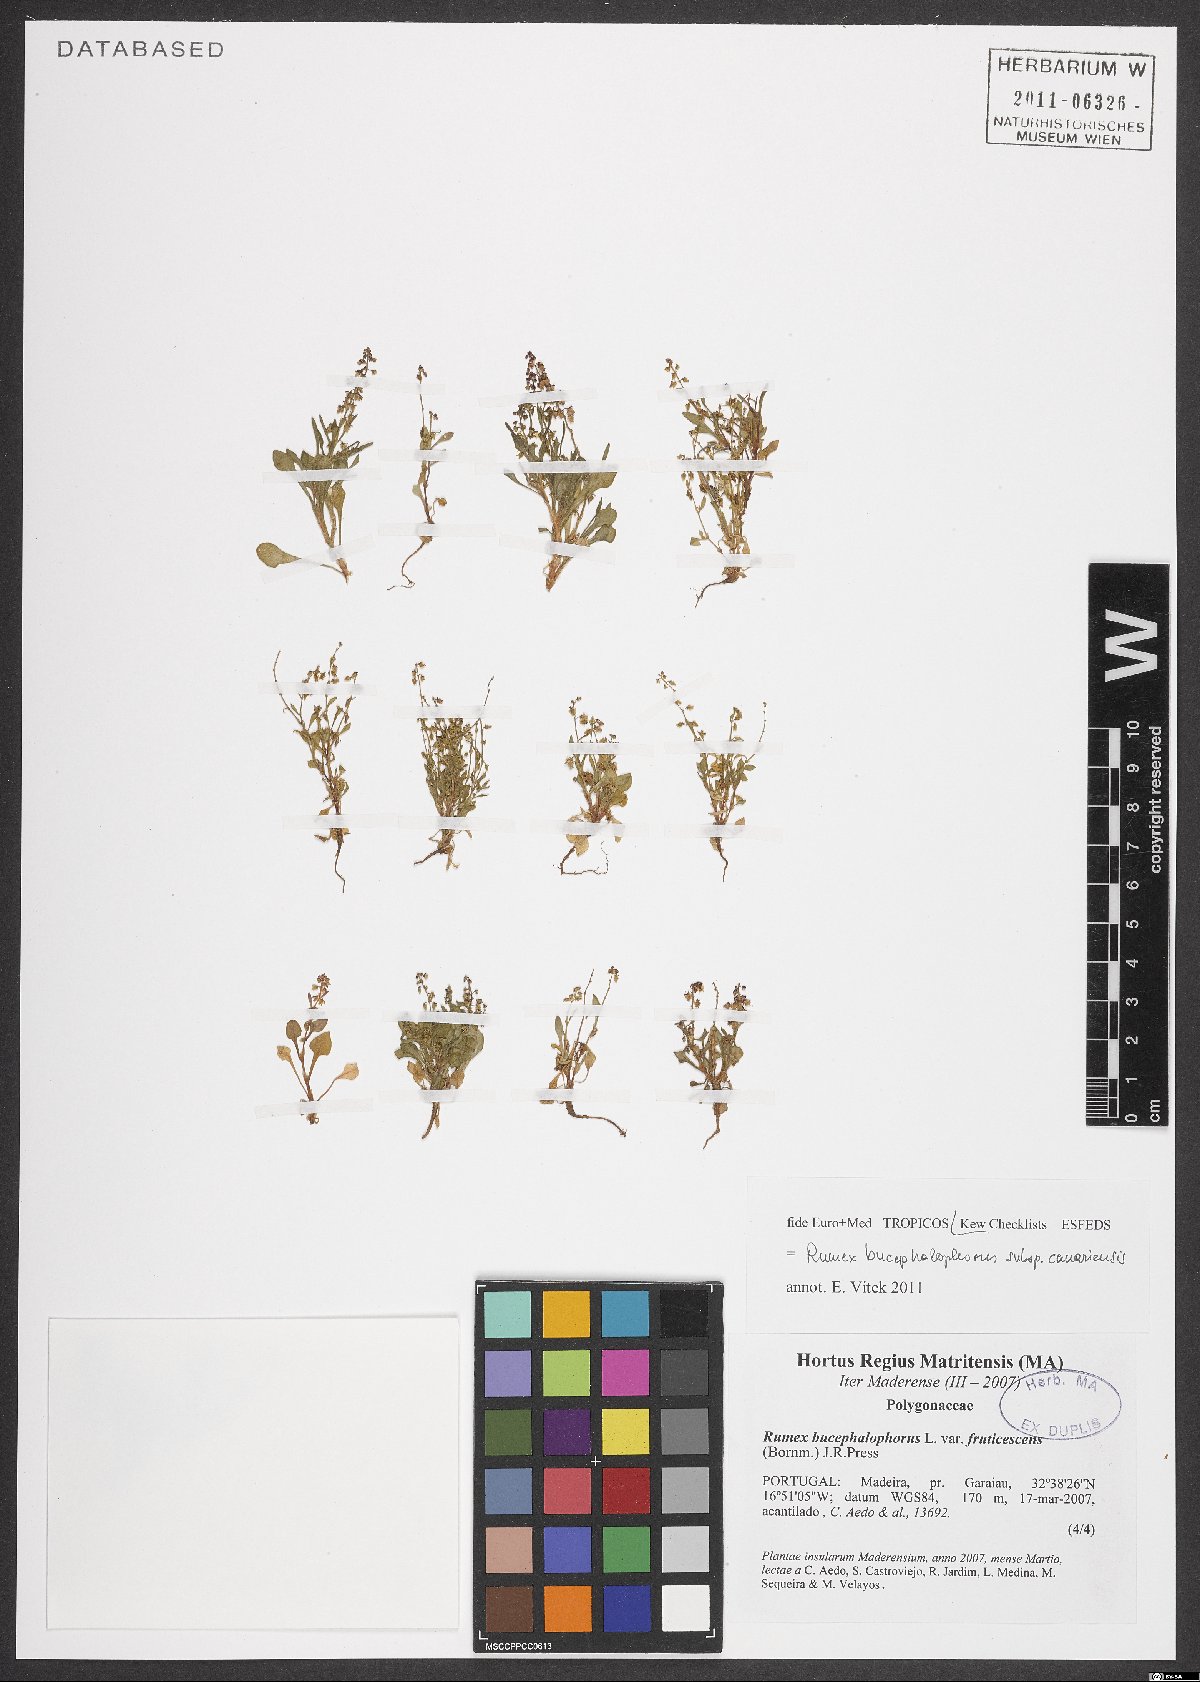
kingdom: Plantae
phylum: Tracheophyta
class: Magnoliopsida
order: Caryophyllales
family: Polygonaceae
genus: Rumex
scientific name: Rumex bucephalophorus
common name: Red dock
